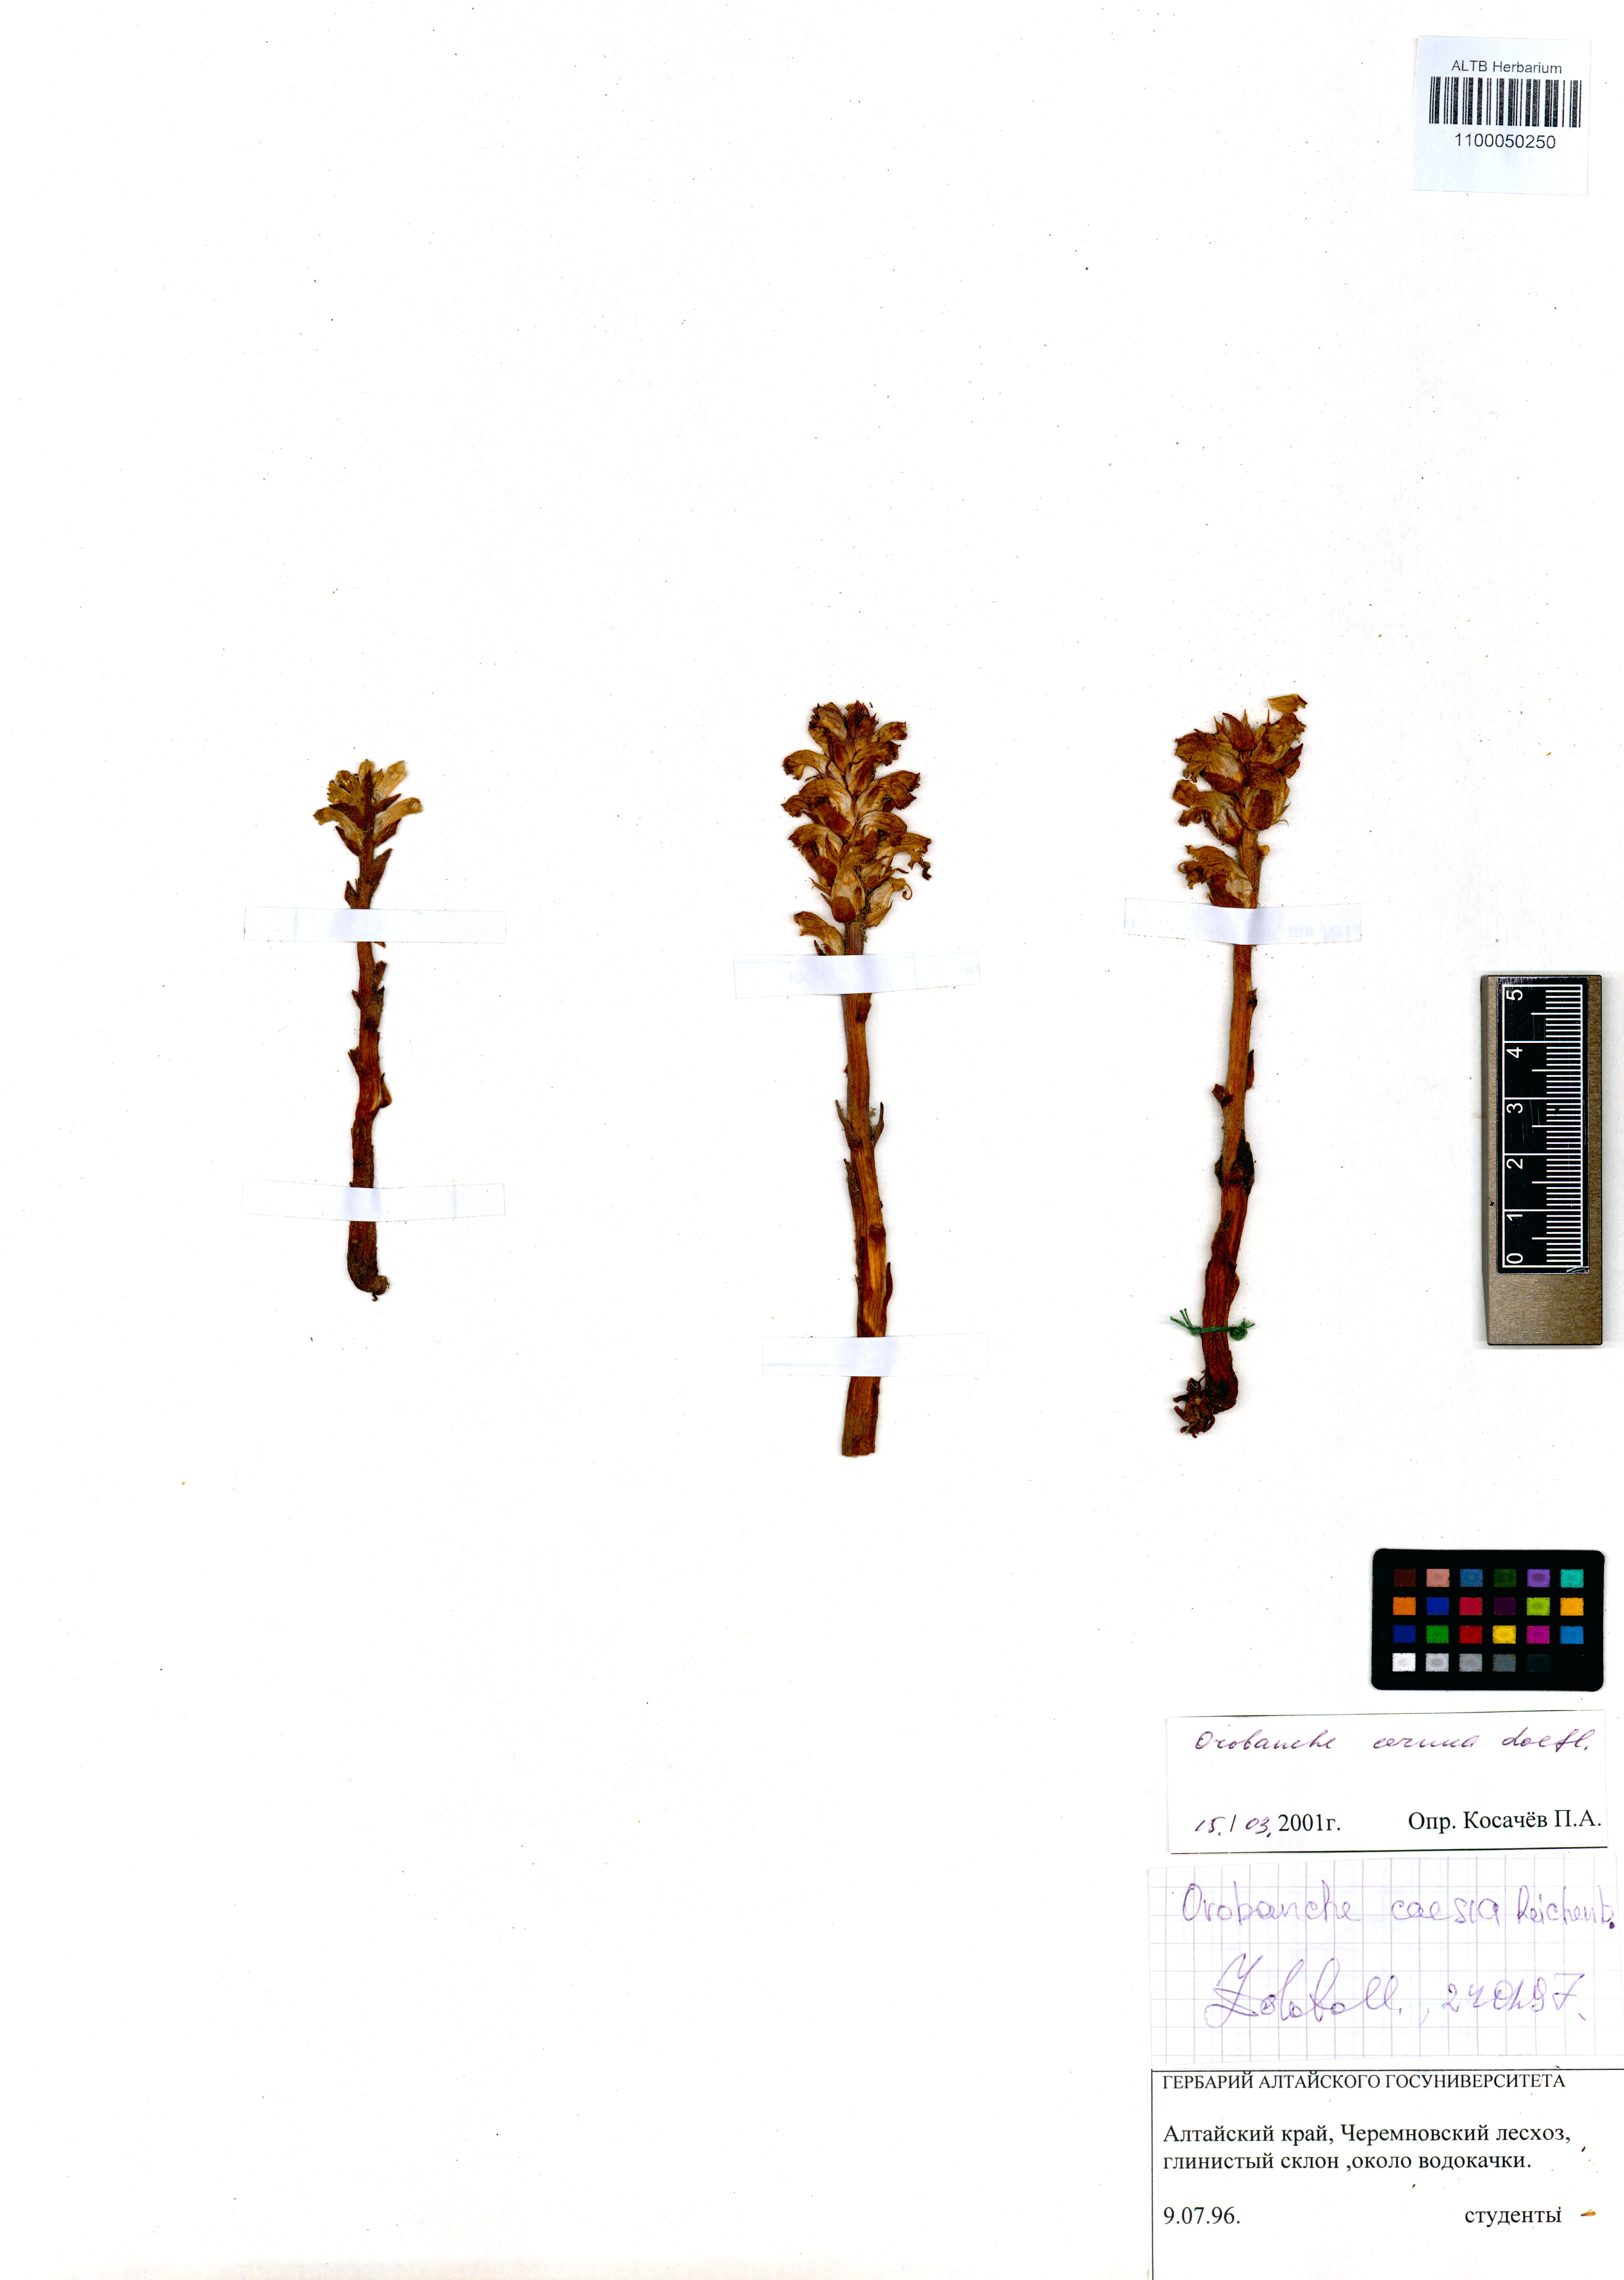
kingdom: Plantae
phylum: Tracheophyta
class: Magnoliopsida
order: Lamiales
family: Orobanchaceae
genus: Orobanche
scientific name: Orobanche cernua
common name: Australian broomrape
